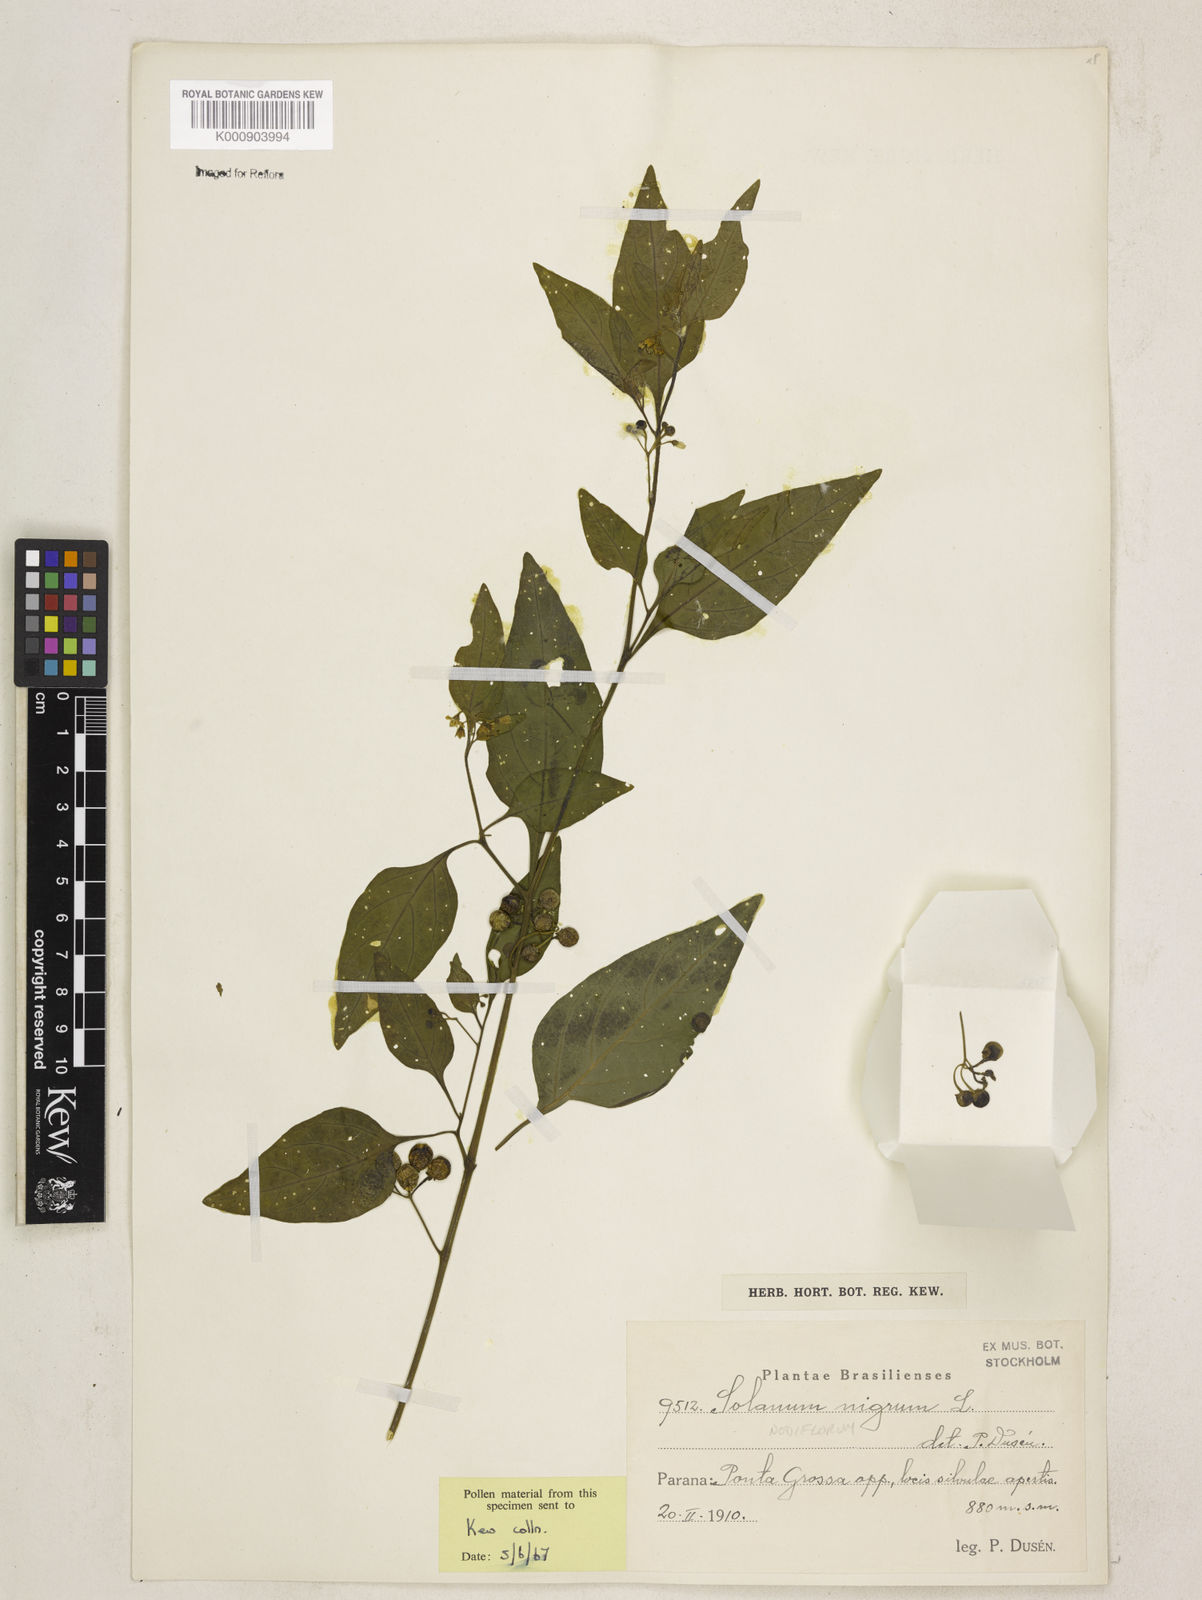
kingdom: Plantae
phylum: Tracheophyta
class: Magnoliopsida
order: Solanales
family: Solanaceae
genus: Solanum
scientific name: Solanum americanum
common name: American black nightshade
